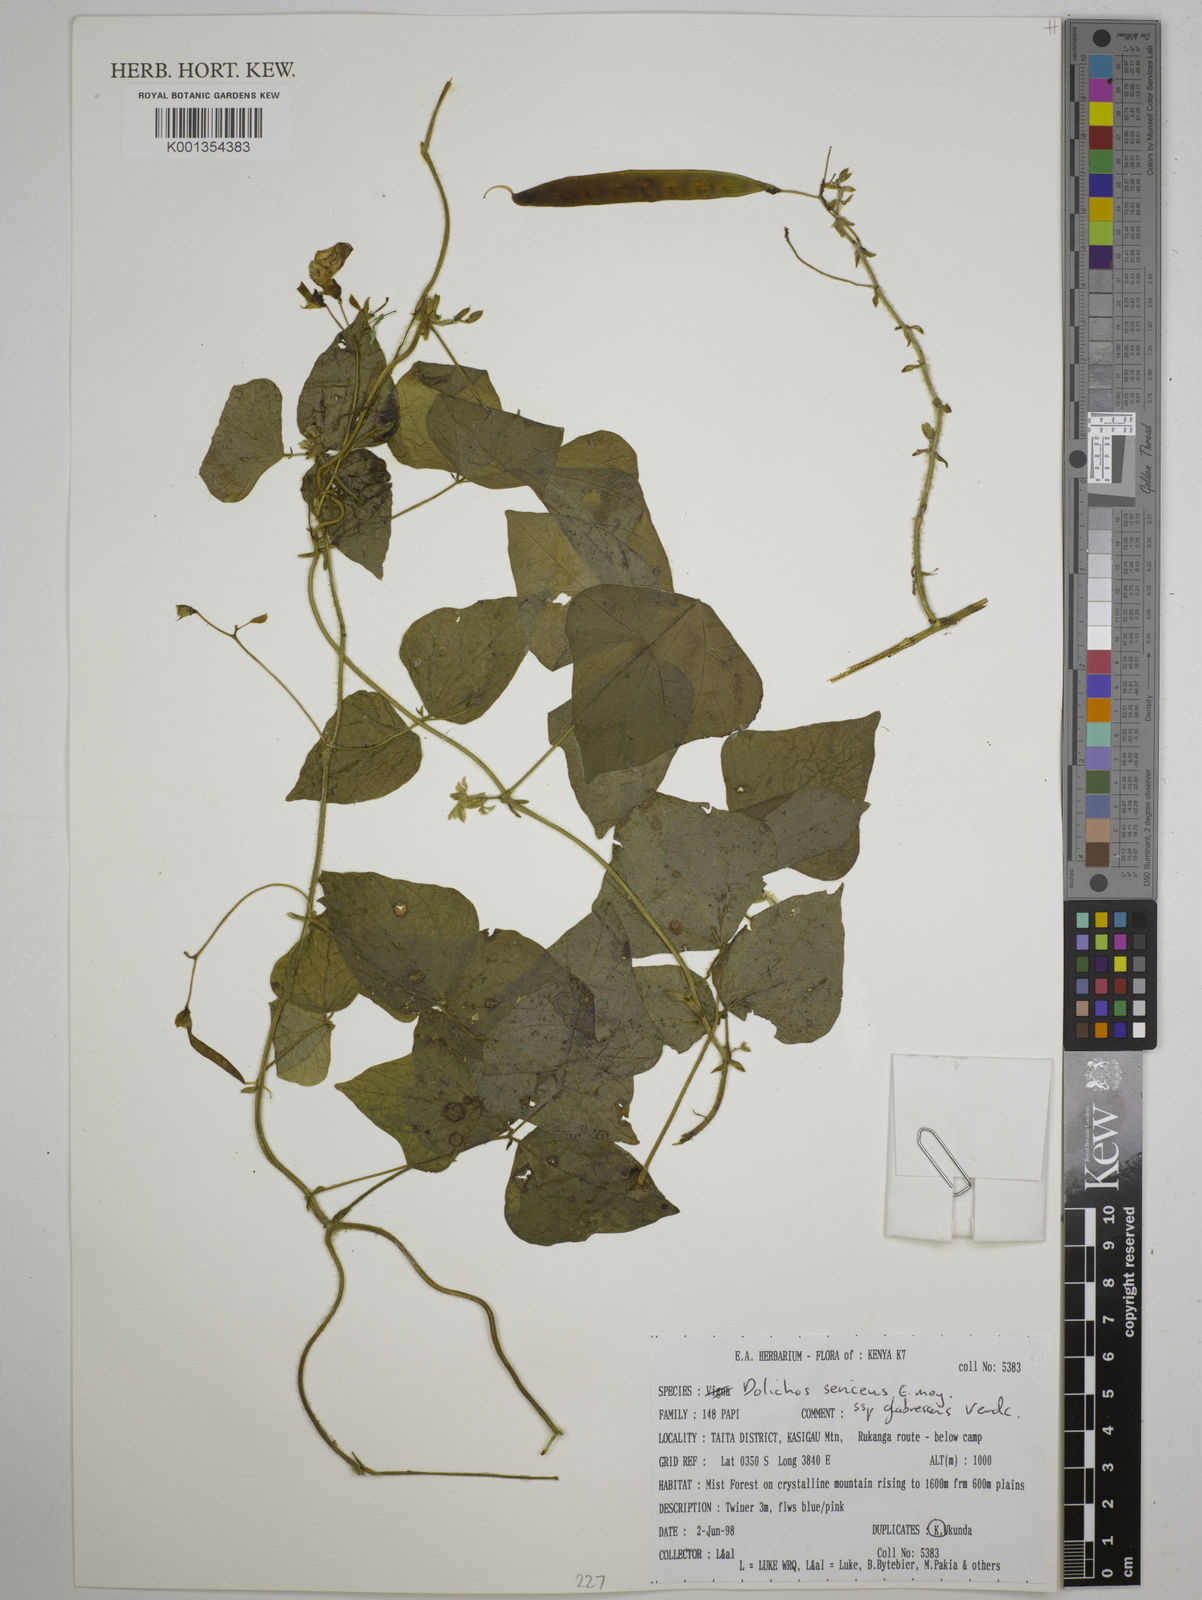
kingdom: Plantae
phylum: Tracheophyta
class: Magnoliopsida
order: Fabales
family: Fabaceae
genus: Dolichos
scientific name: Dolichos sericeus
